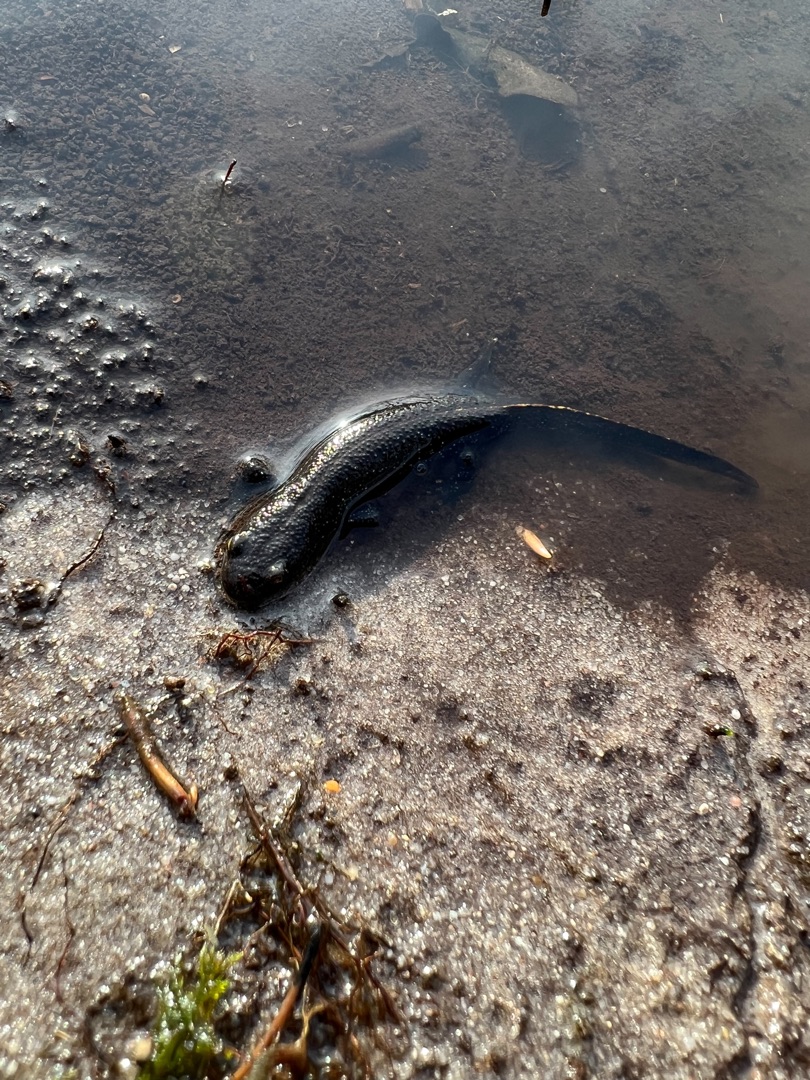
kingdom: Animalia
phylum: Chordata
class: Amphibia
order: Caudata
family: Salamandridae
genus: Triturus
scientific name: Triturus cristatus
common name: Stor vandsalamander
